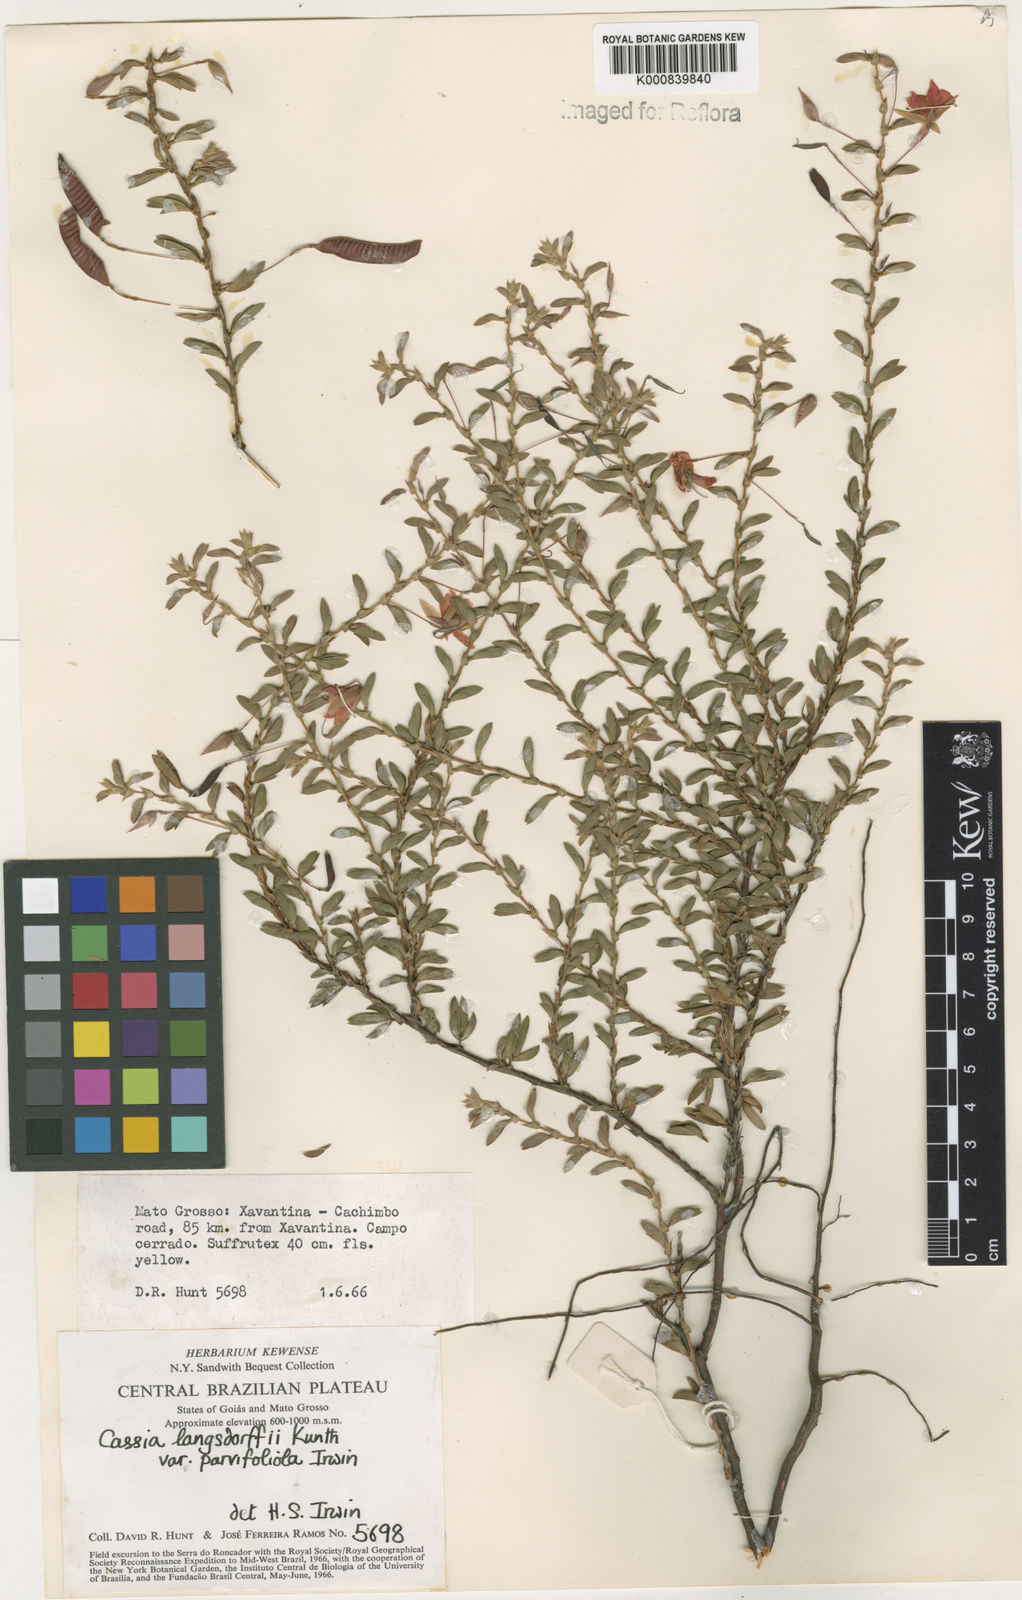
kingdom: Plantae
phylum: Tracheophyta
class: Magnoliopsida
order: Fabales
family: Fabaceae
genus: Chamaecrista
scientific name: Chamaecrista ramosa
